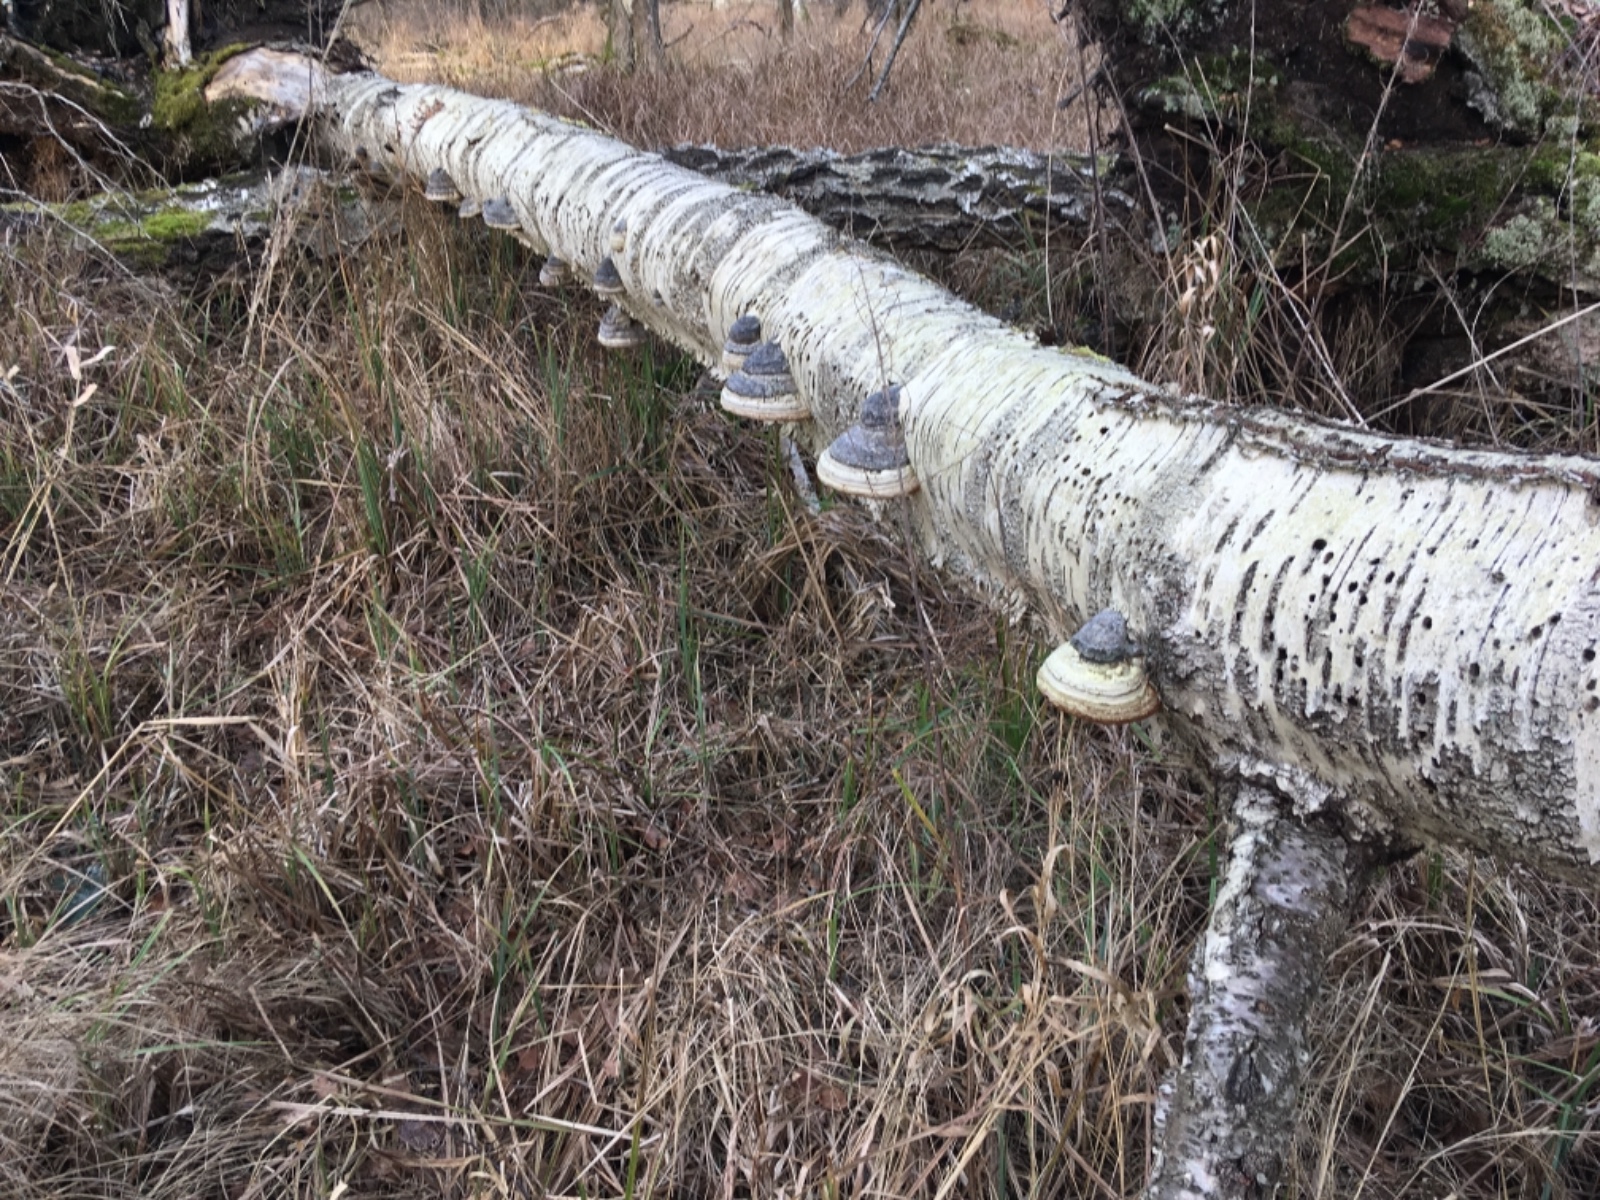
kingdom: Fungi
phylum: Basidiomycota
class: Agaricomycetes
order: Polyporales
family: Polyporaceae
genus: Fomes
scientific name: Fomes fomentarius
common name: tøndersvamp
